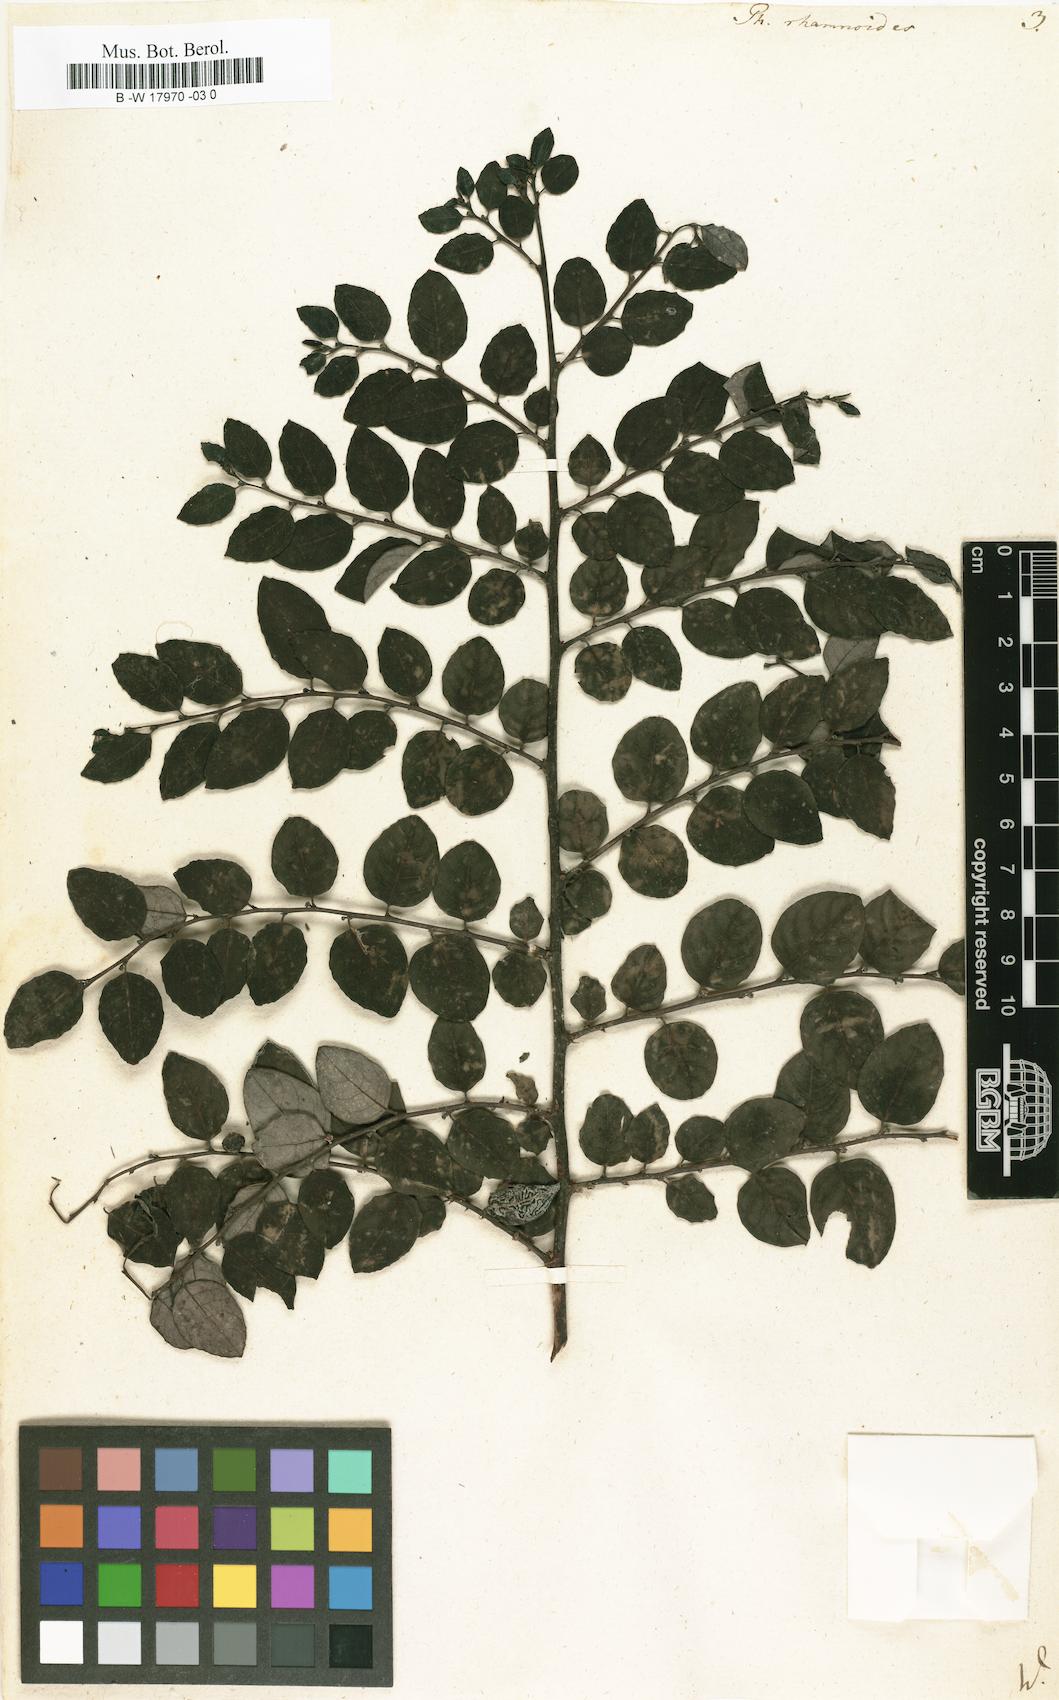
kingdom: Plantae
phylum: Tracheophyta
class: Magnoliopsida
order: Malpighiales
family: Phyllanthaceae
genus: Breynia
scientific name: Breynia vitis-idaea
